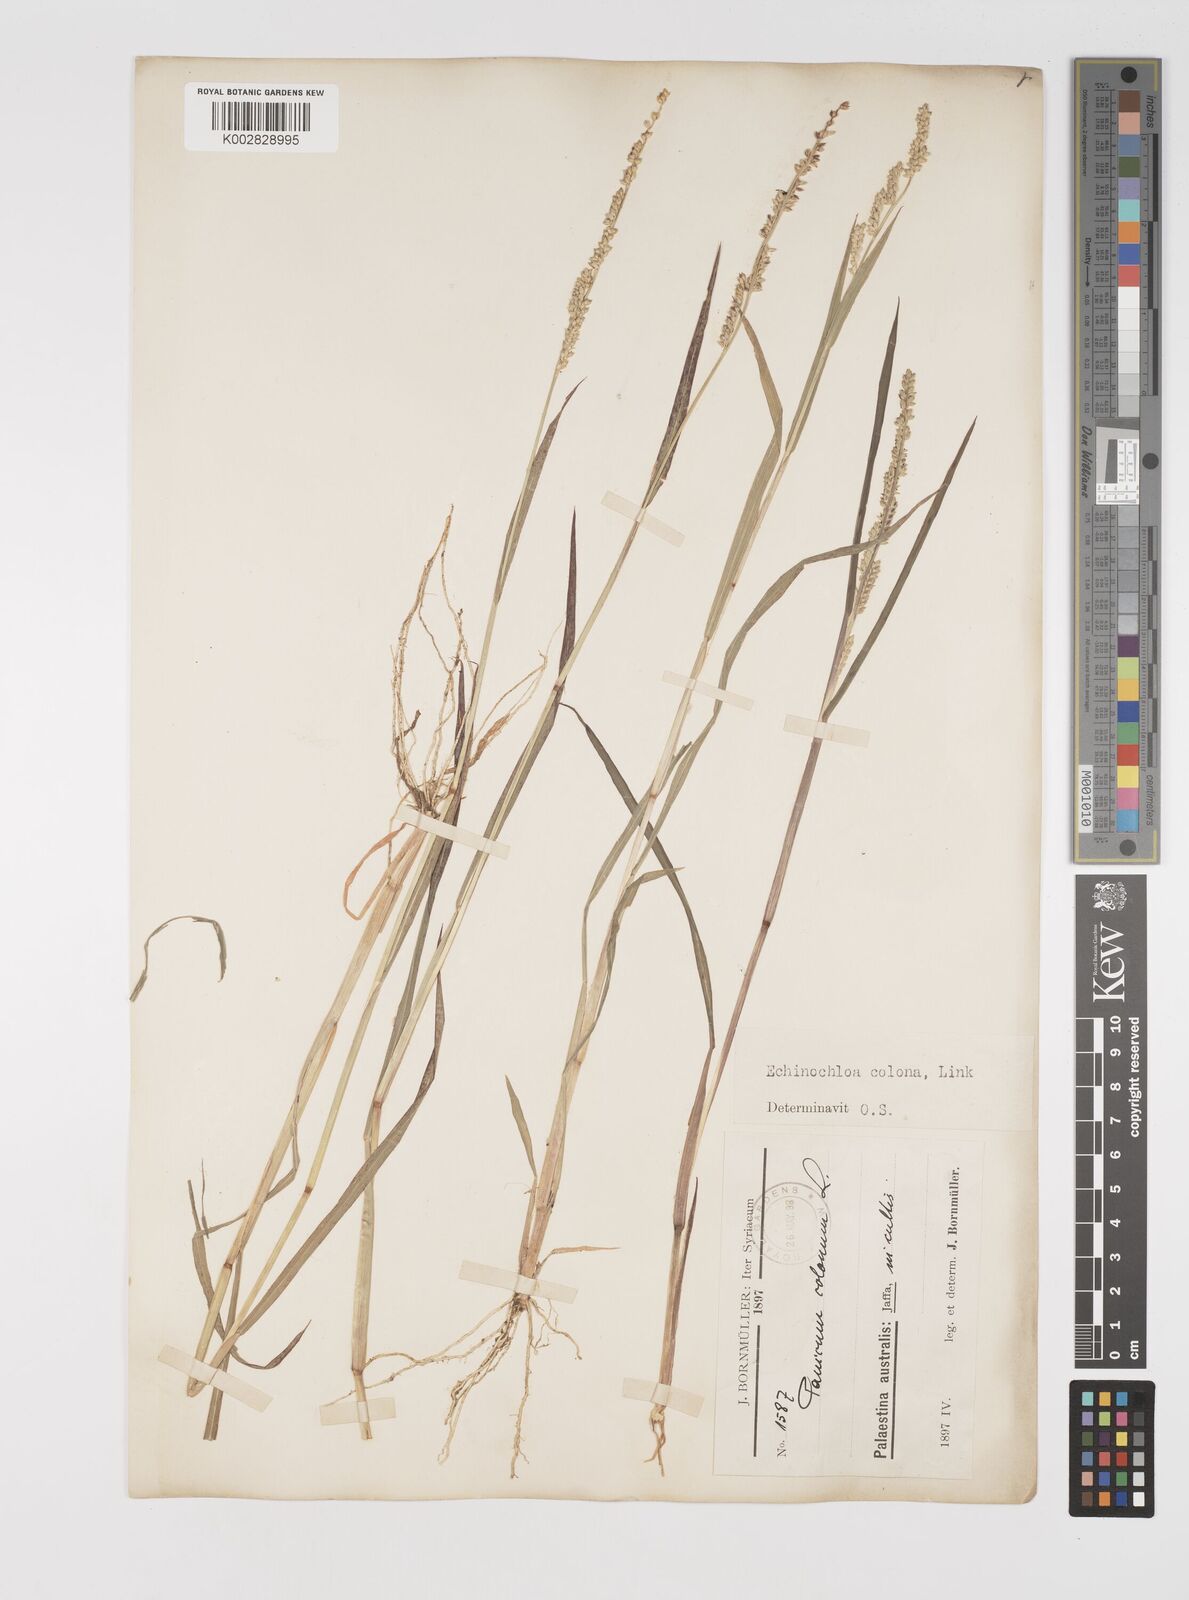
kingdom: Plantae
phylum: Tracheophyta
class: Liliopsida
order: Poales
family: Poaceae
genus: Echinochloa
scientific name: Echinochloa colonum
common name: Jungle rice
